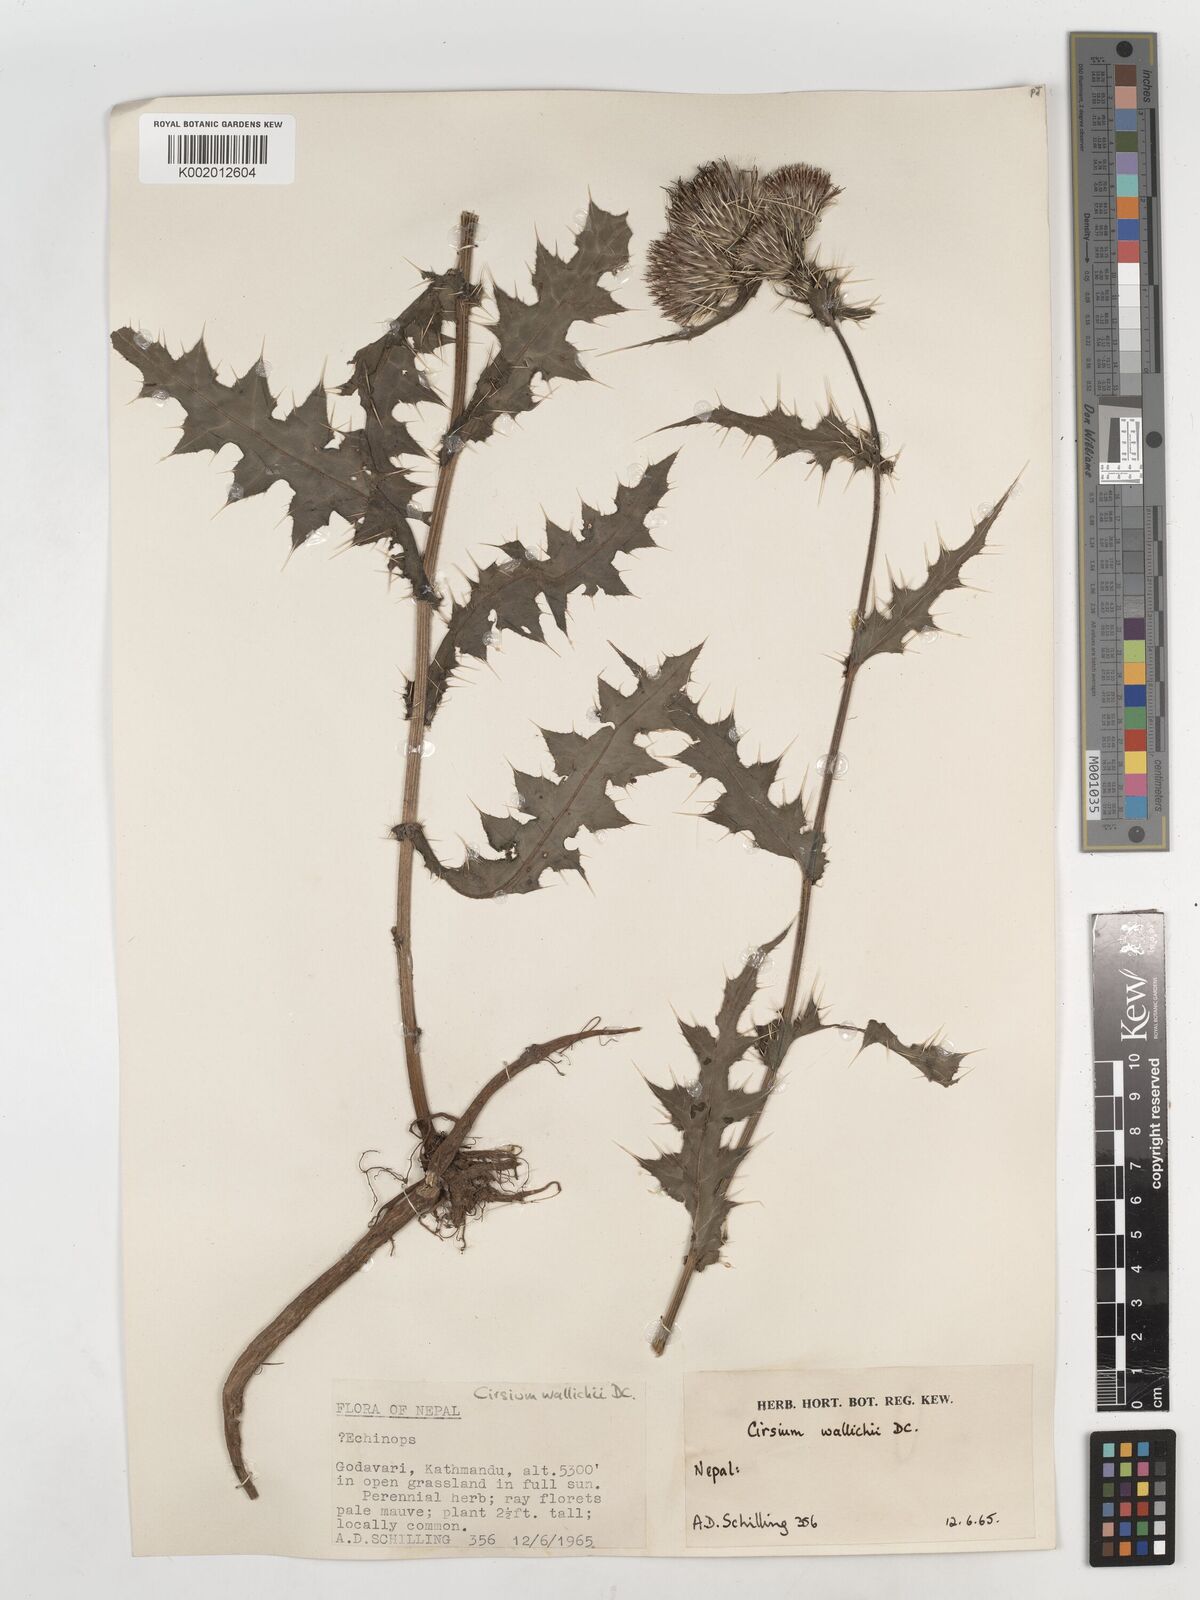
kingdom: Plantae
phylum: Tracheophyta
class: Magnoliopsida
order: Asterales
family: Asteraceae
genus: Cirsium
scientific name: Cirsium wallichii
